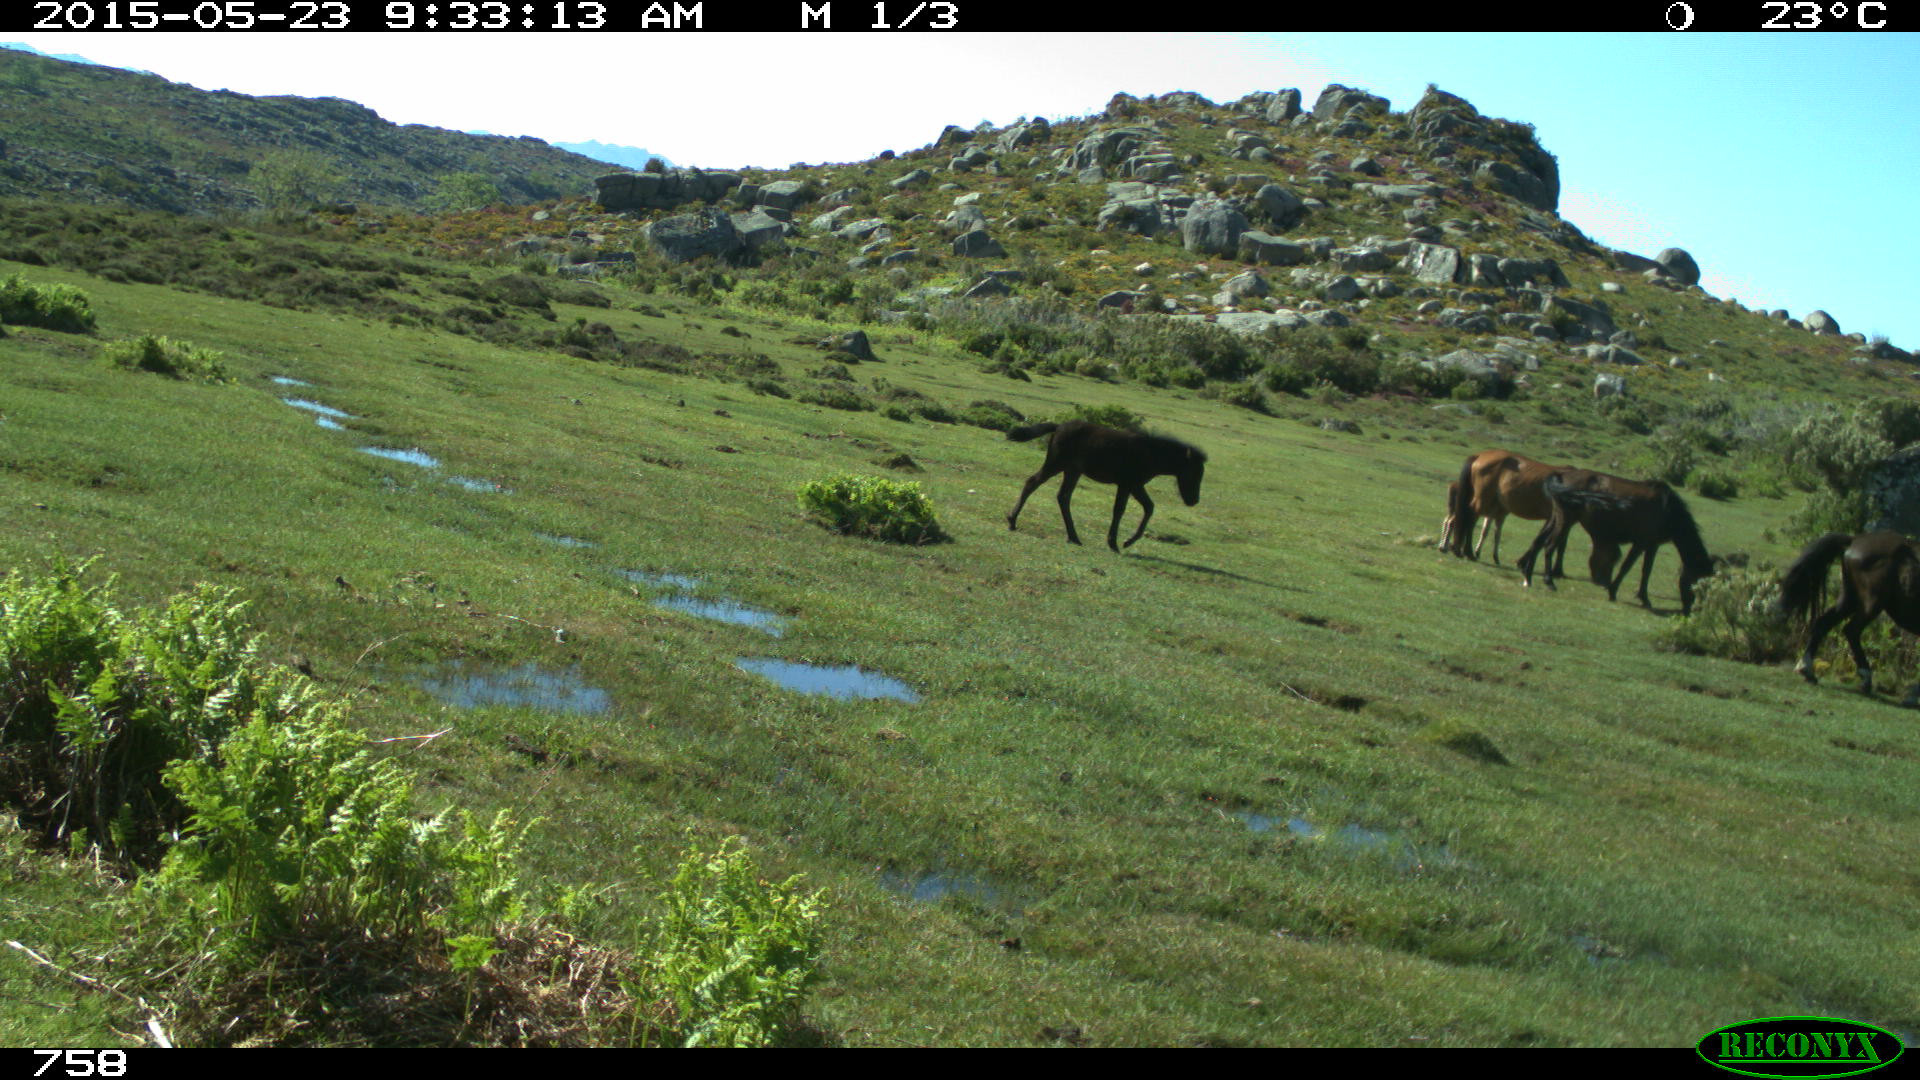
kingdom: Animalia
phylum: Chordata
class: Mammalia
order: Perissodactyla
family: Equidae
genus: Equus
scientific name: Equus caballus
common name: Horse
